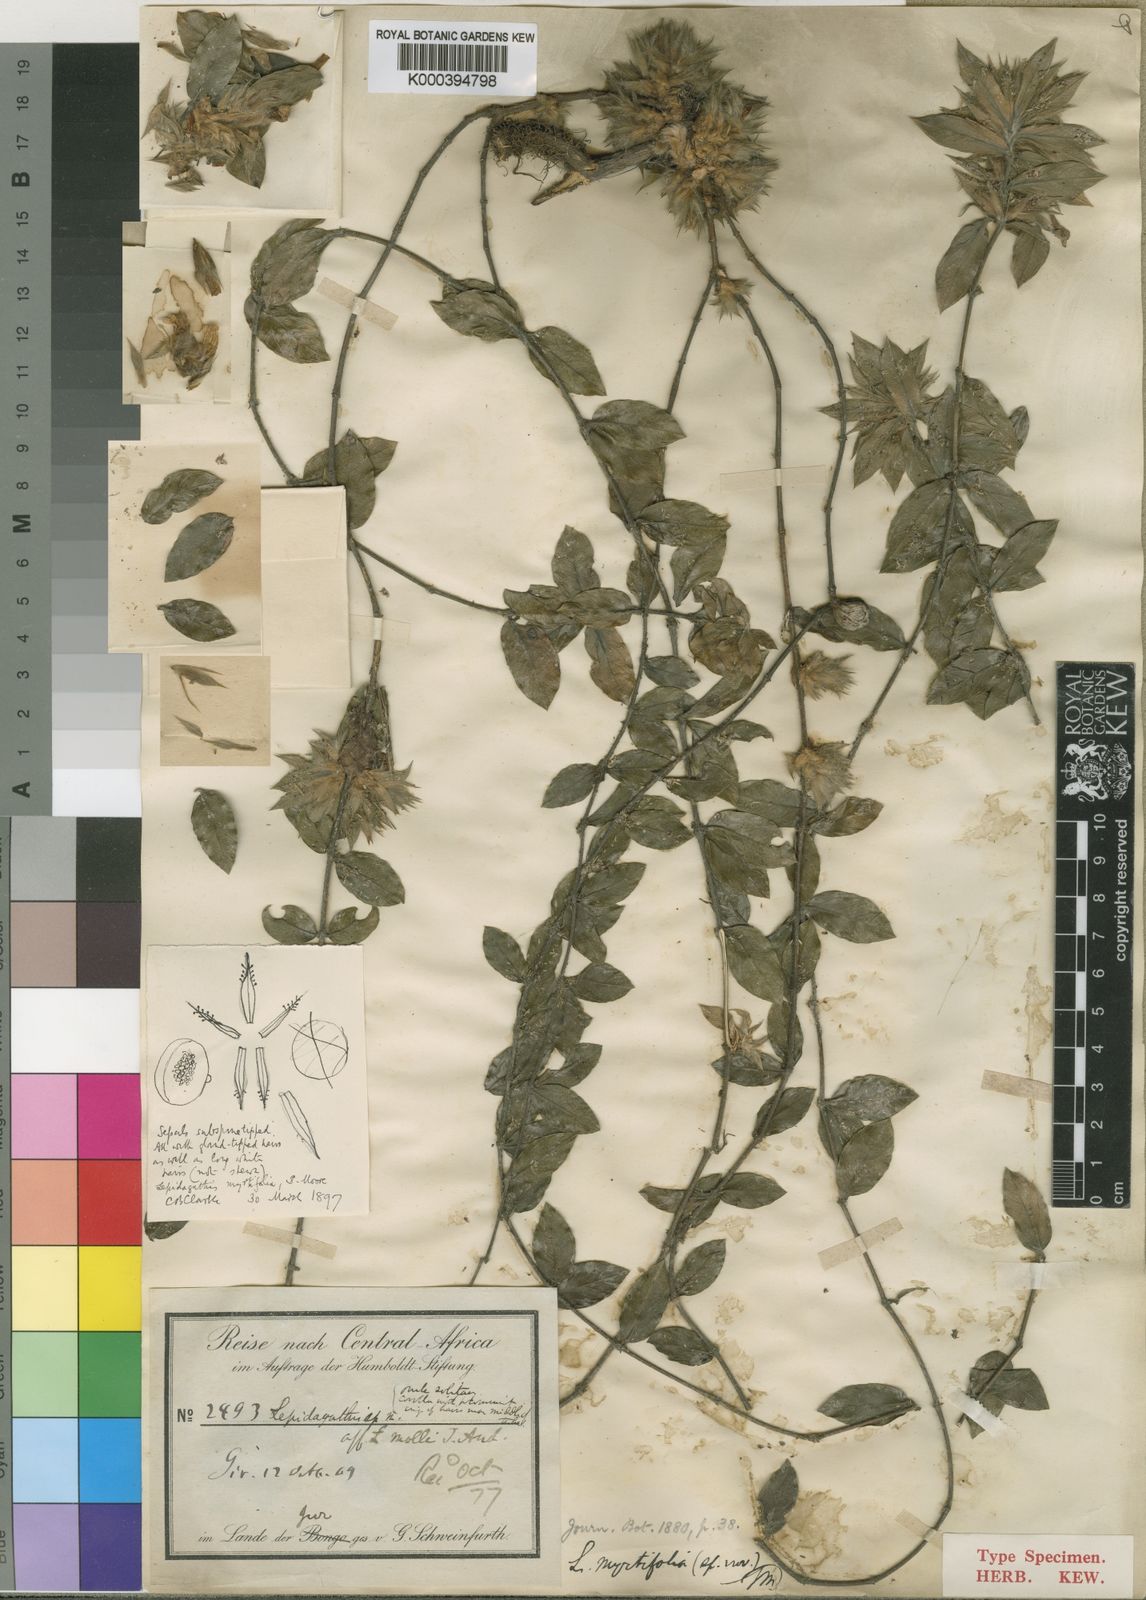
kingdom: Plantae
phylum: Tracheophyta
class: Magnoliopsida
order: Lamiales
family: Acanthaceae
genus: Lepidagathis
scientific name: Lepidagathis collina
